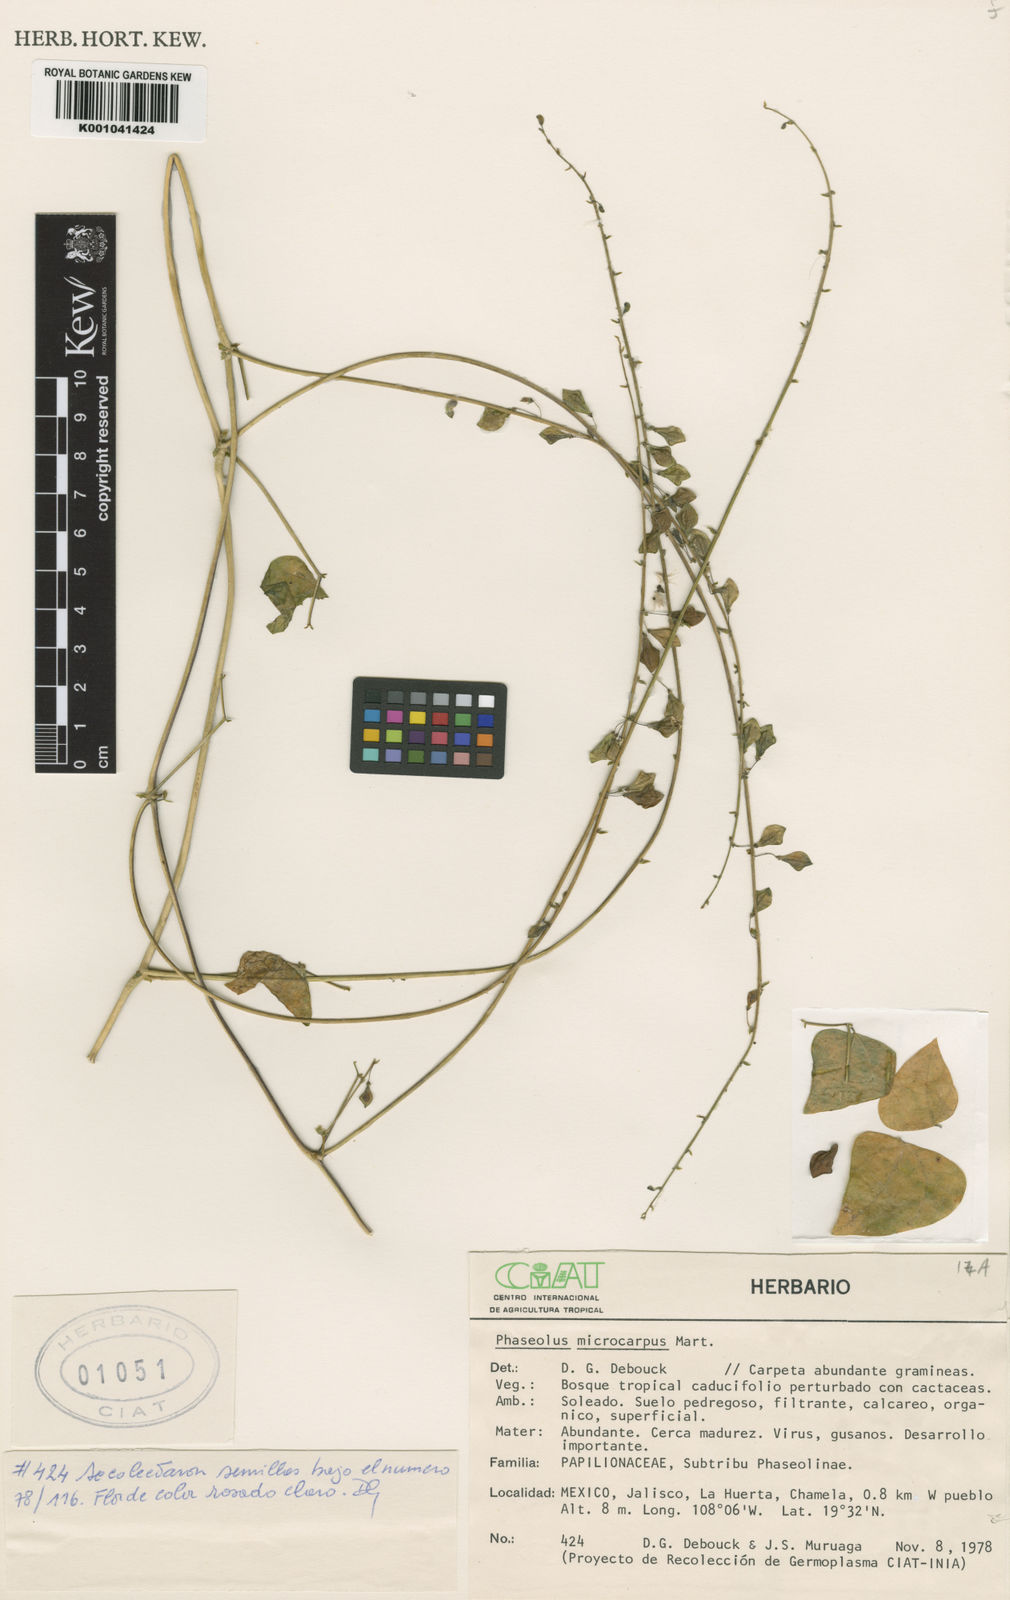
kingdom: Plantae
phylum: Tracheophyta
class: Magnoliopsida
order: Fabales
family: Fabaceae
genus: Phaseolus
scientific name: Phaseolus microcarpus
